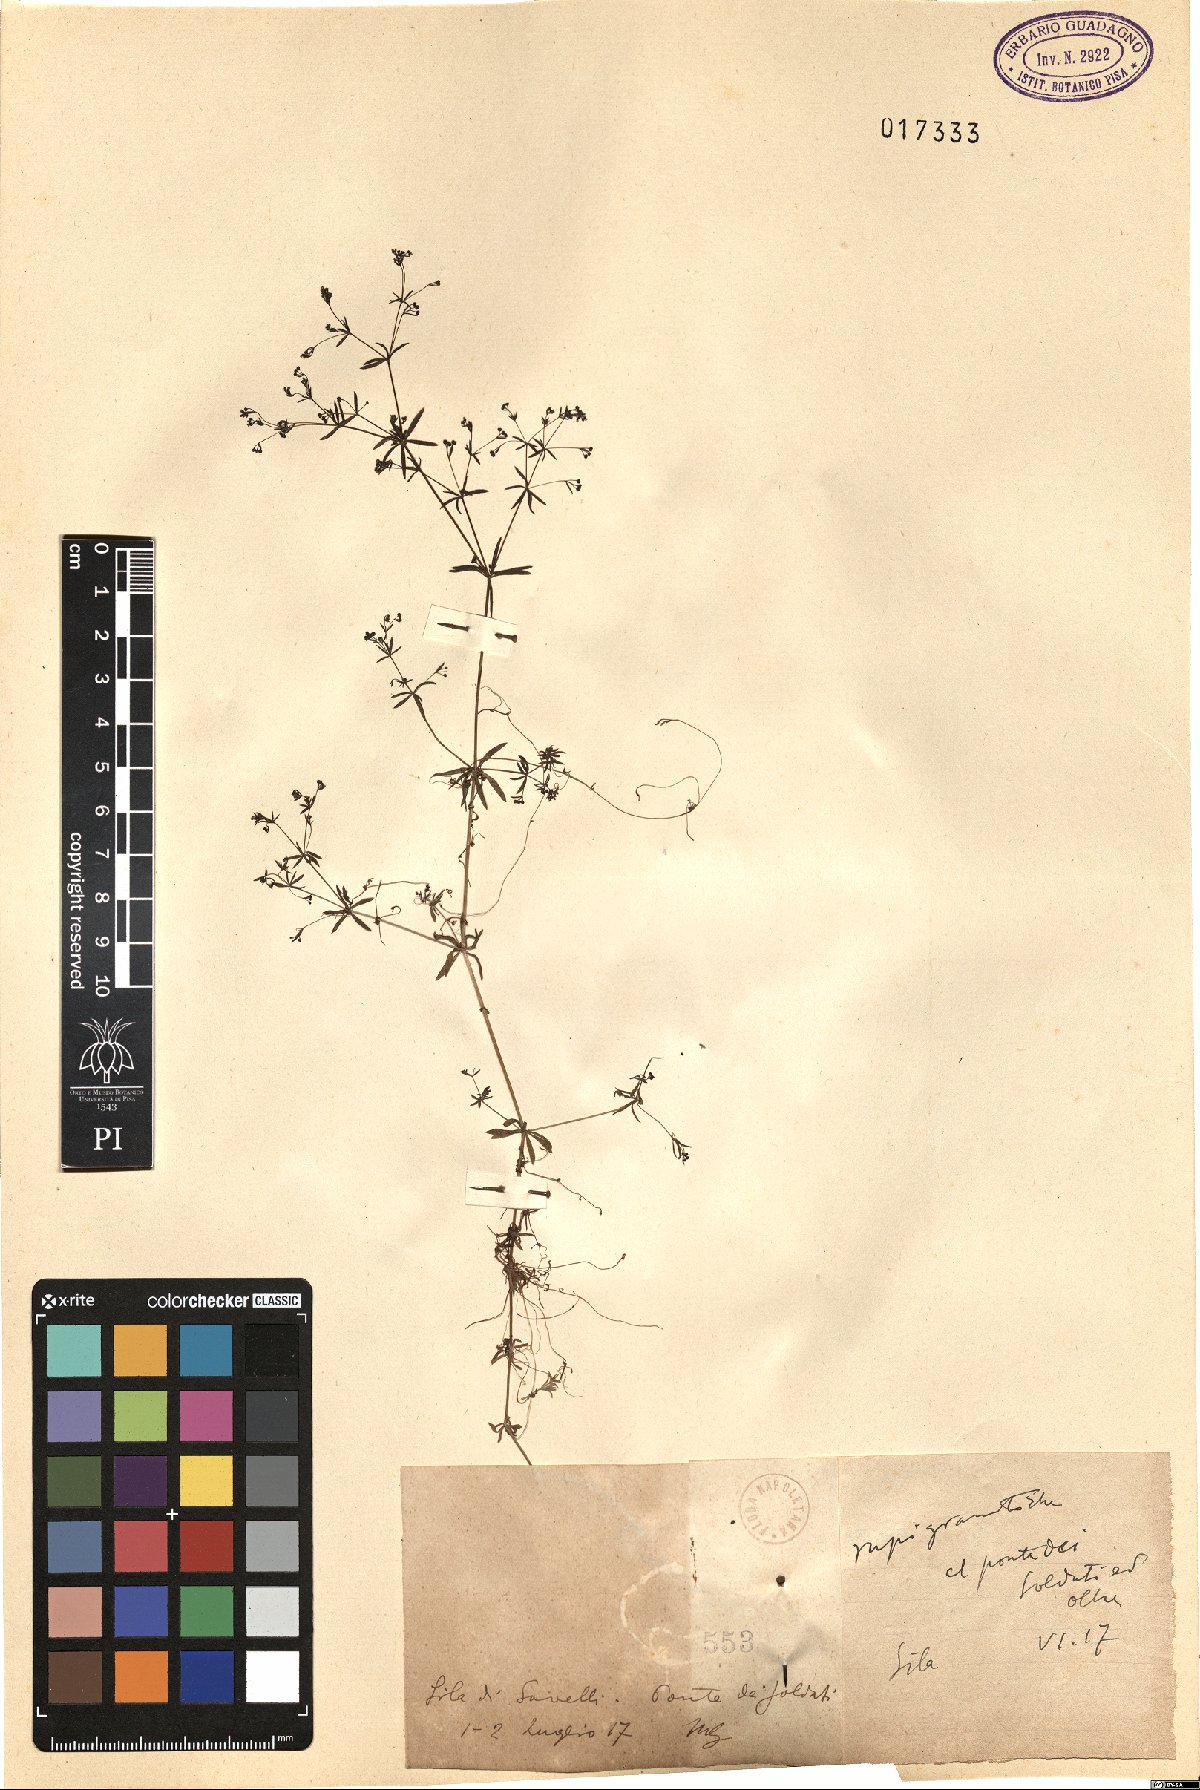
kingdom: Plantae
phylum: Tracheophyta
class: Magnoliopsida
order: Gentianales
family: Rubiaceae
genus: Galium
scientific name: Galium
